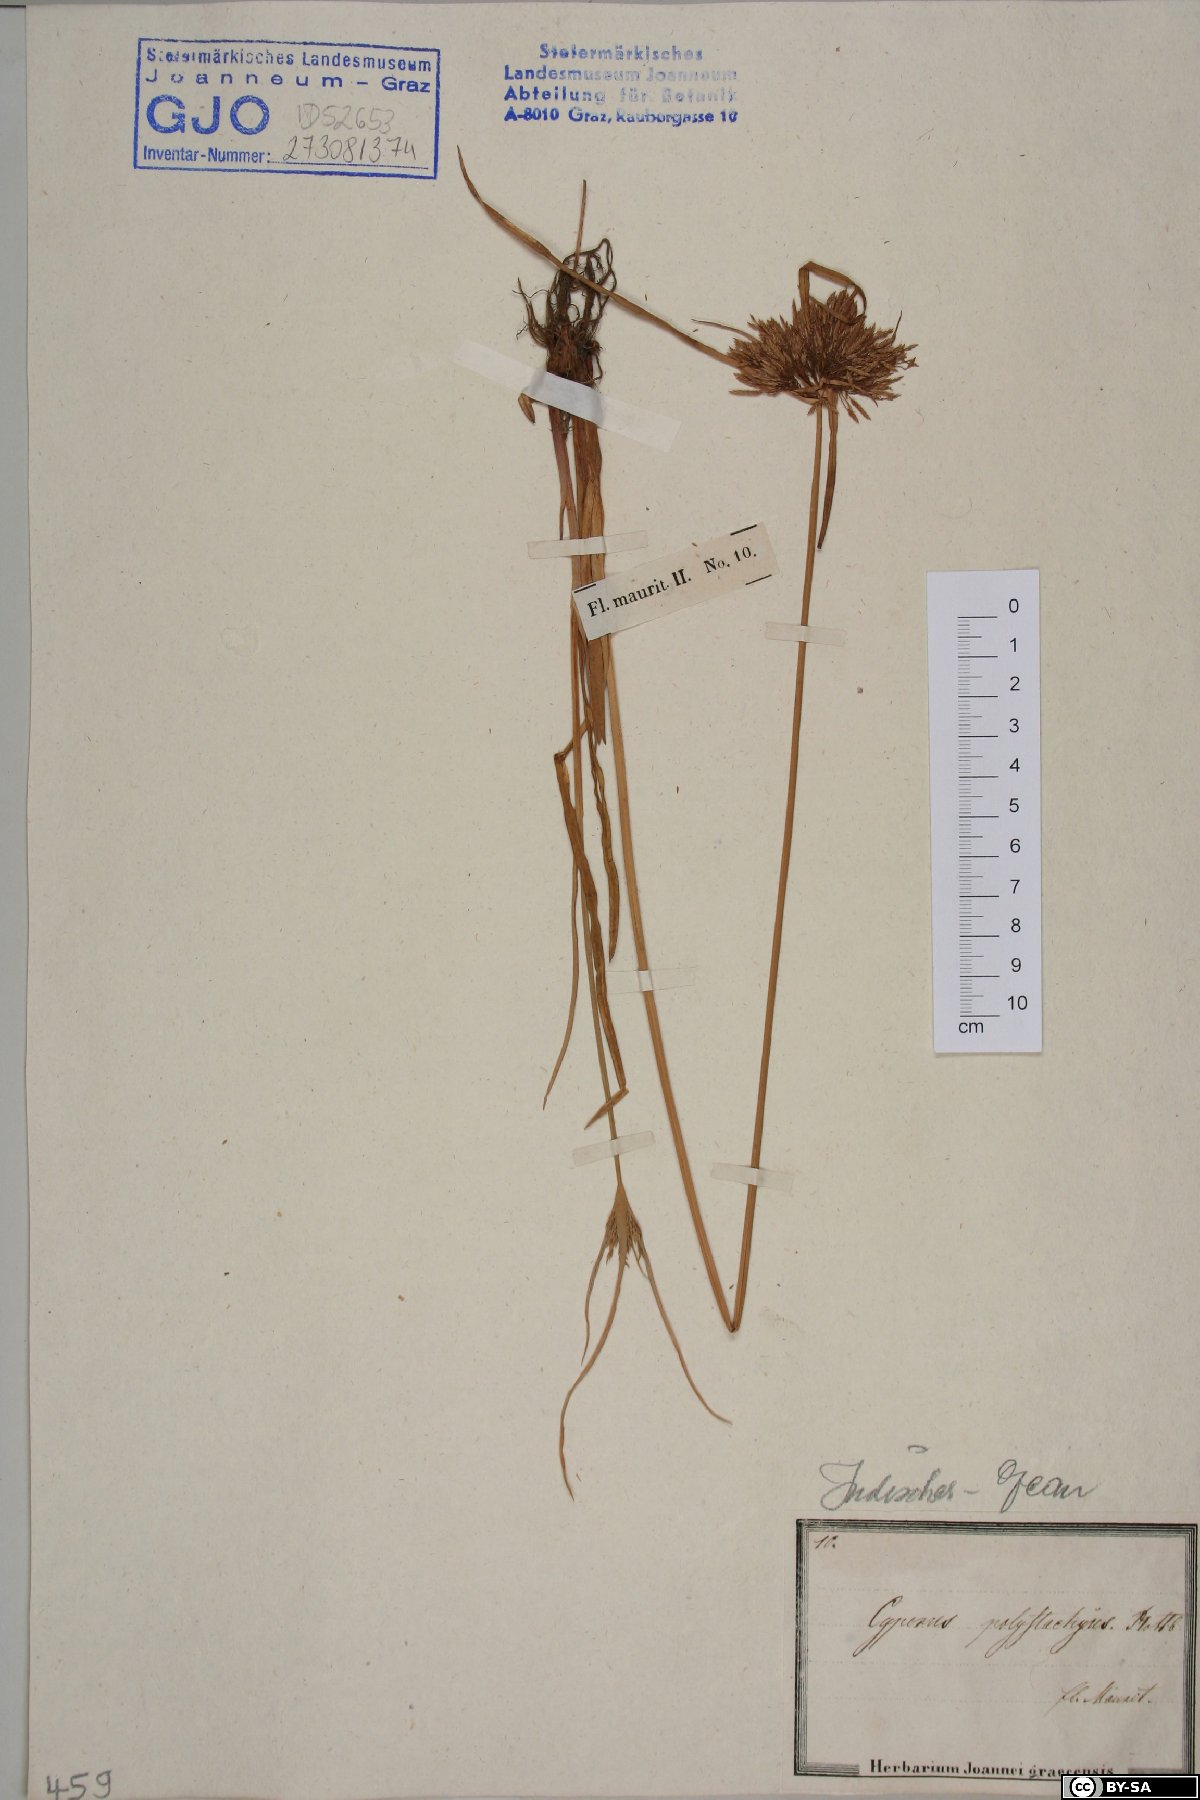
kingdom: Plantae
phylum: Tracheophyta
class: Liliopsida
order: Poales
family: Cyperaceae
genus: Cyperus
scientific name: Cyperus polystachyos
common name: Bunchy flat sedge
